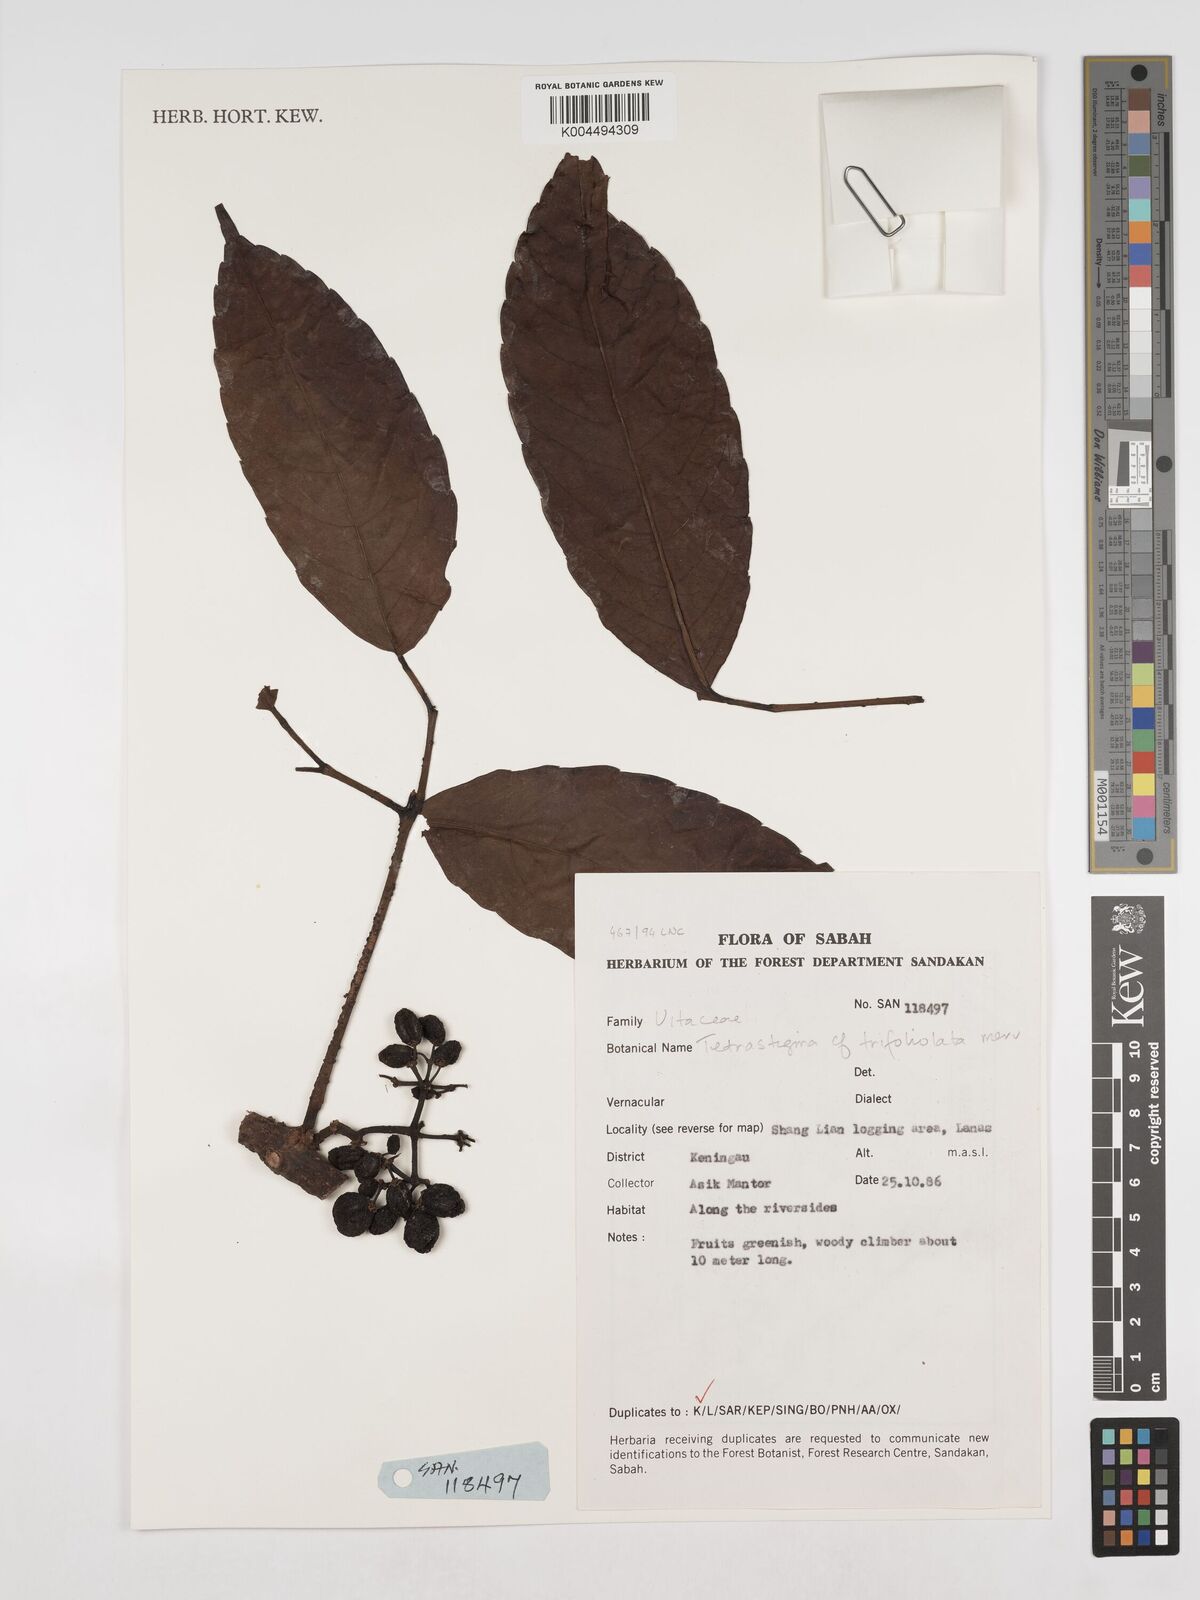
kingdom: Plantae
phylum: Tracheophyta
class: Magnoliopsida
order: Vitales
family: Vitaceae
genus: Tetrastigma
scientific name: Tetrastigma trifoliolatum
